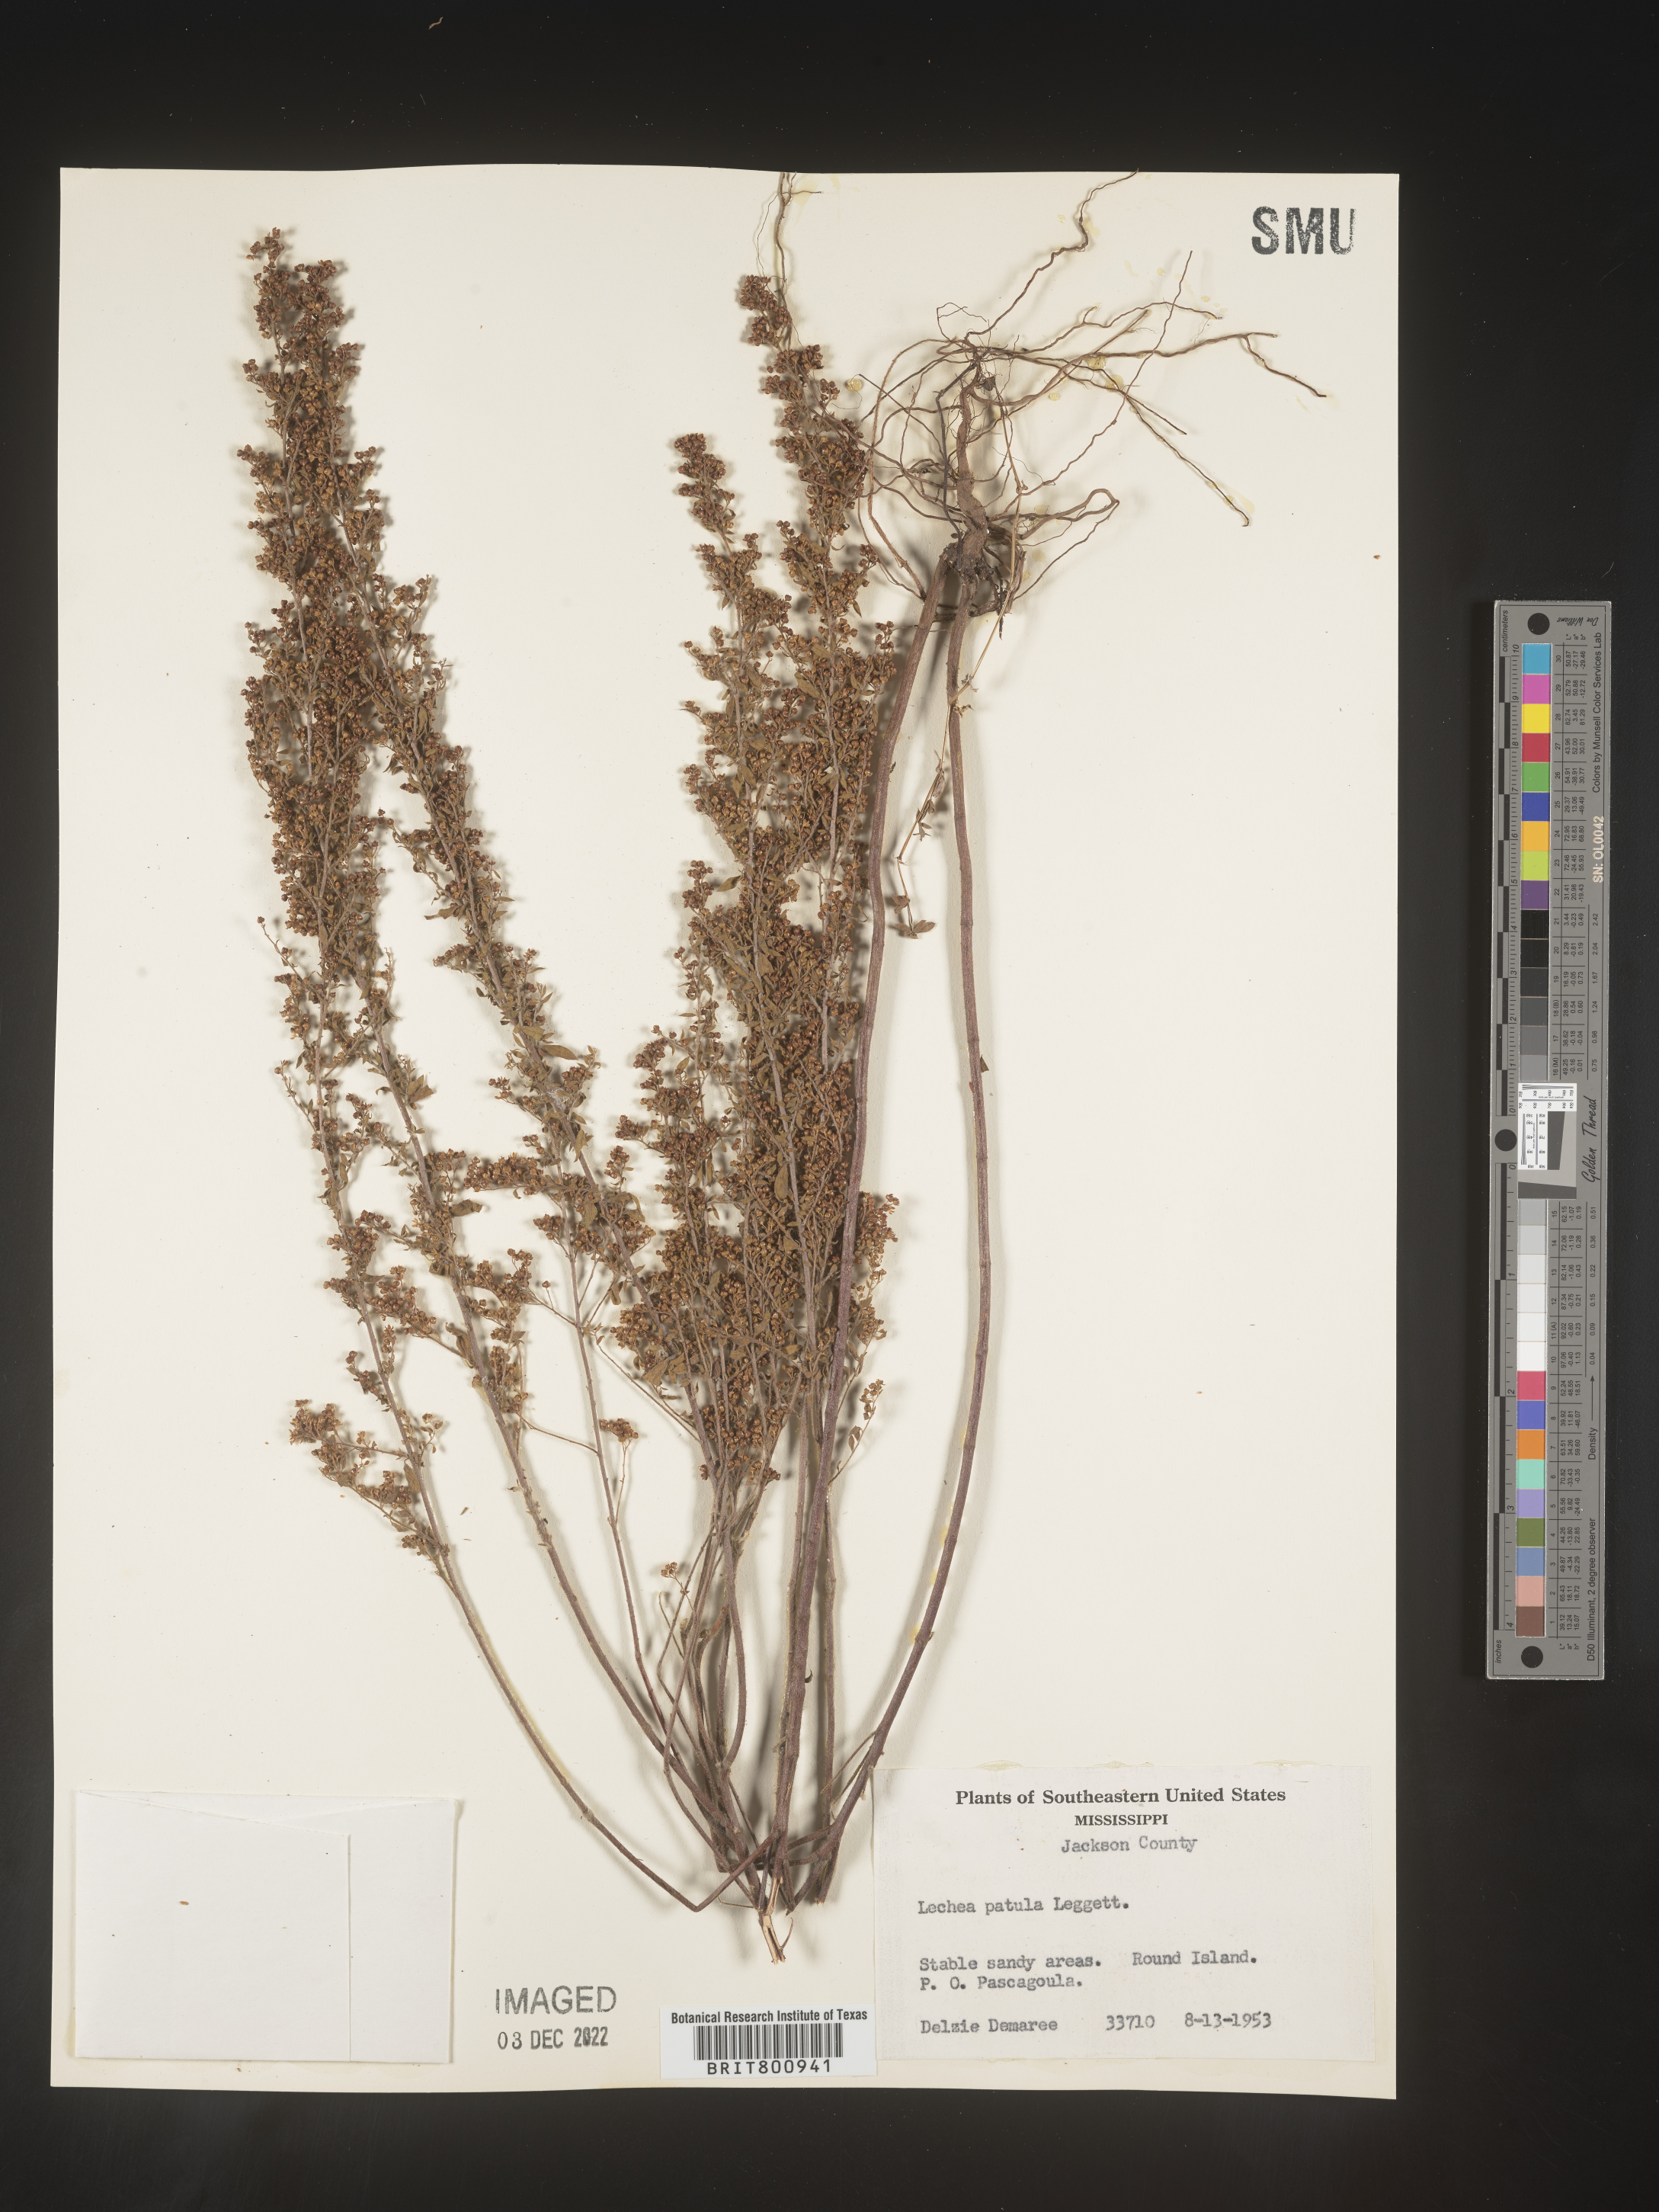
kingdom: Plantae
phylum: Tracheophyta
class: Magnoliopsida
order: Malvales
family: Cistaceae
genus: Lechea
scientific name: Lechea sessiliflora
